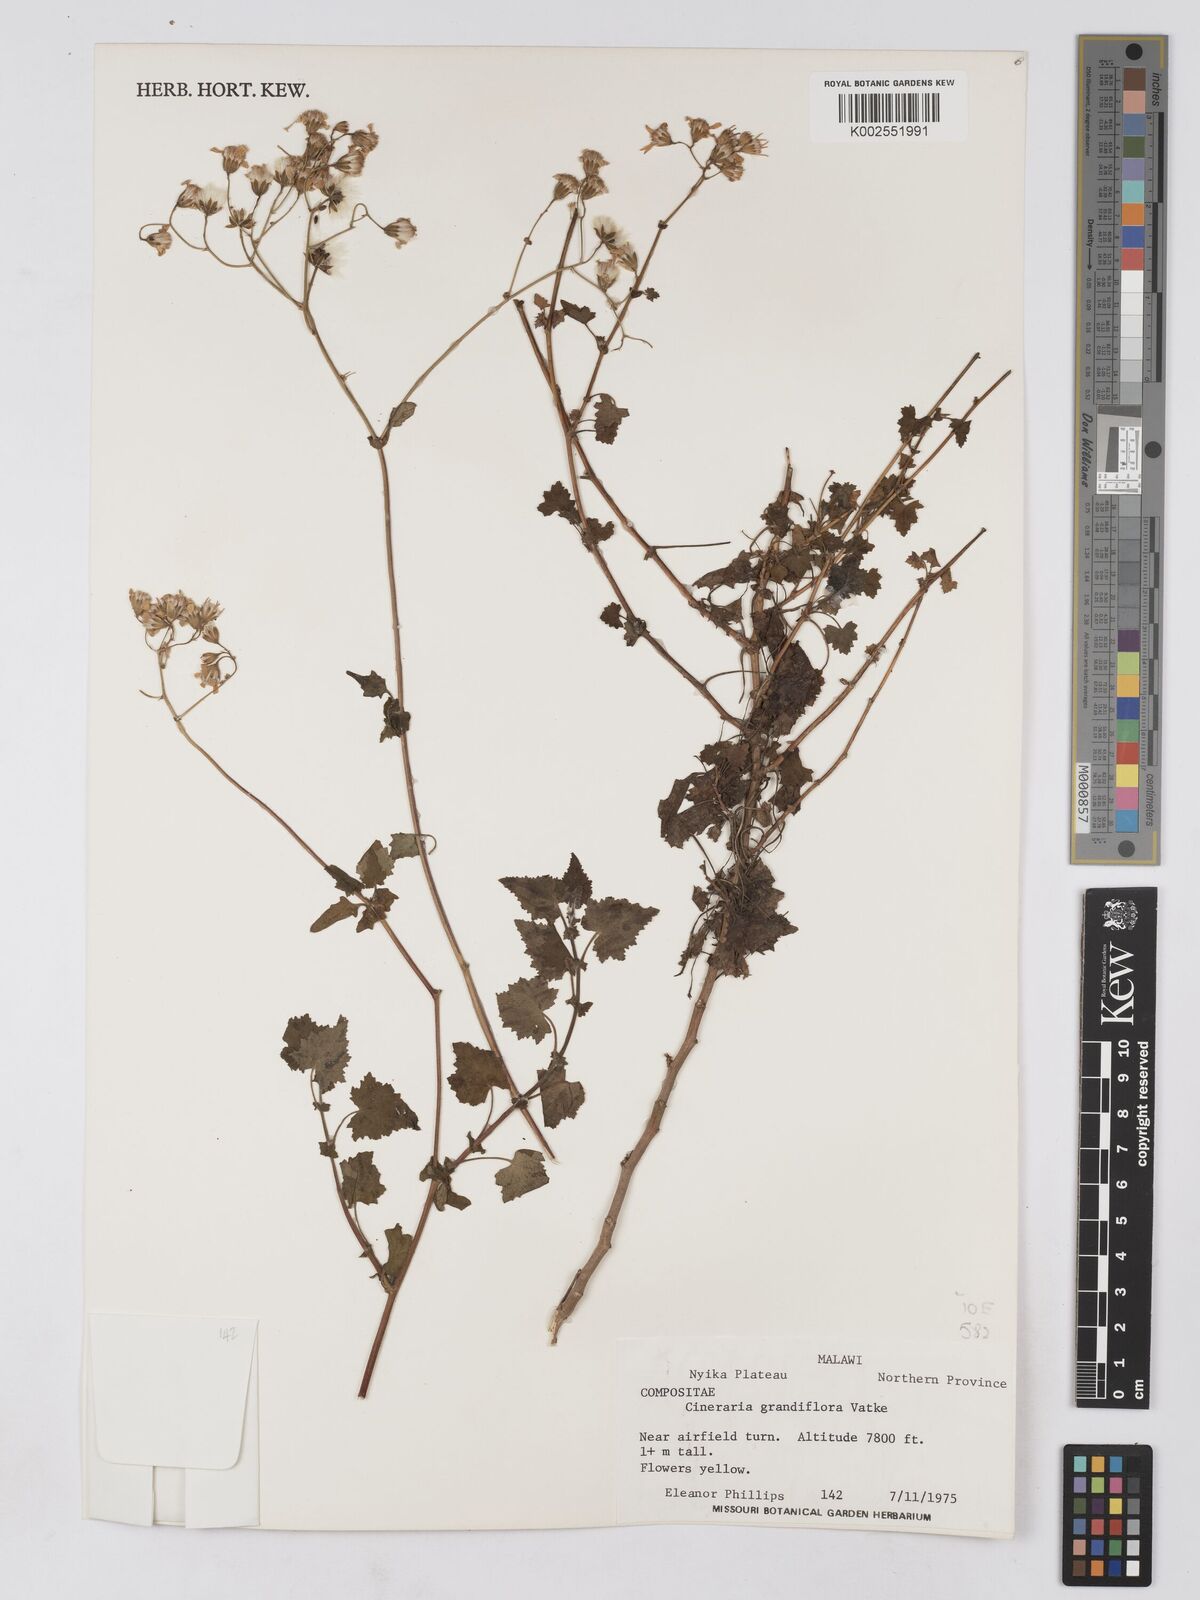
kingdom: Plantae
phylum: Tracheophyta
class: Magnoliopsida
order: Asterales
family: Asteraceae
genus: Cineraria
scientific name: Cineraria deltoidea
